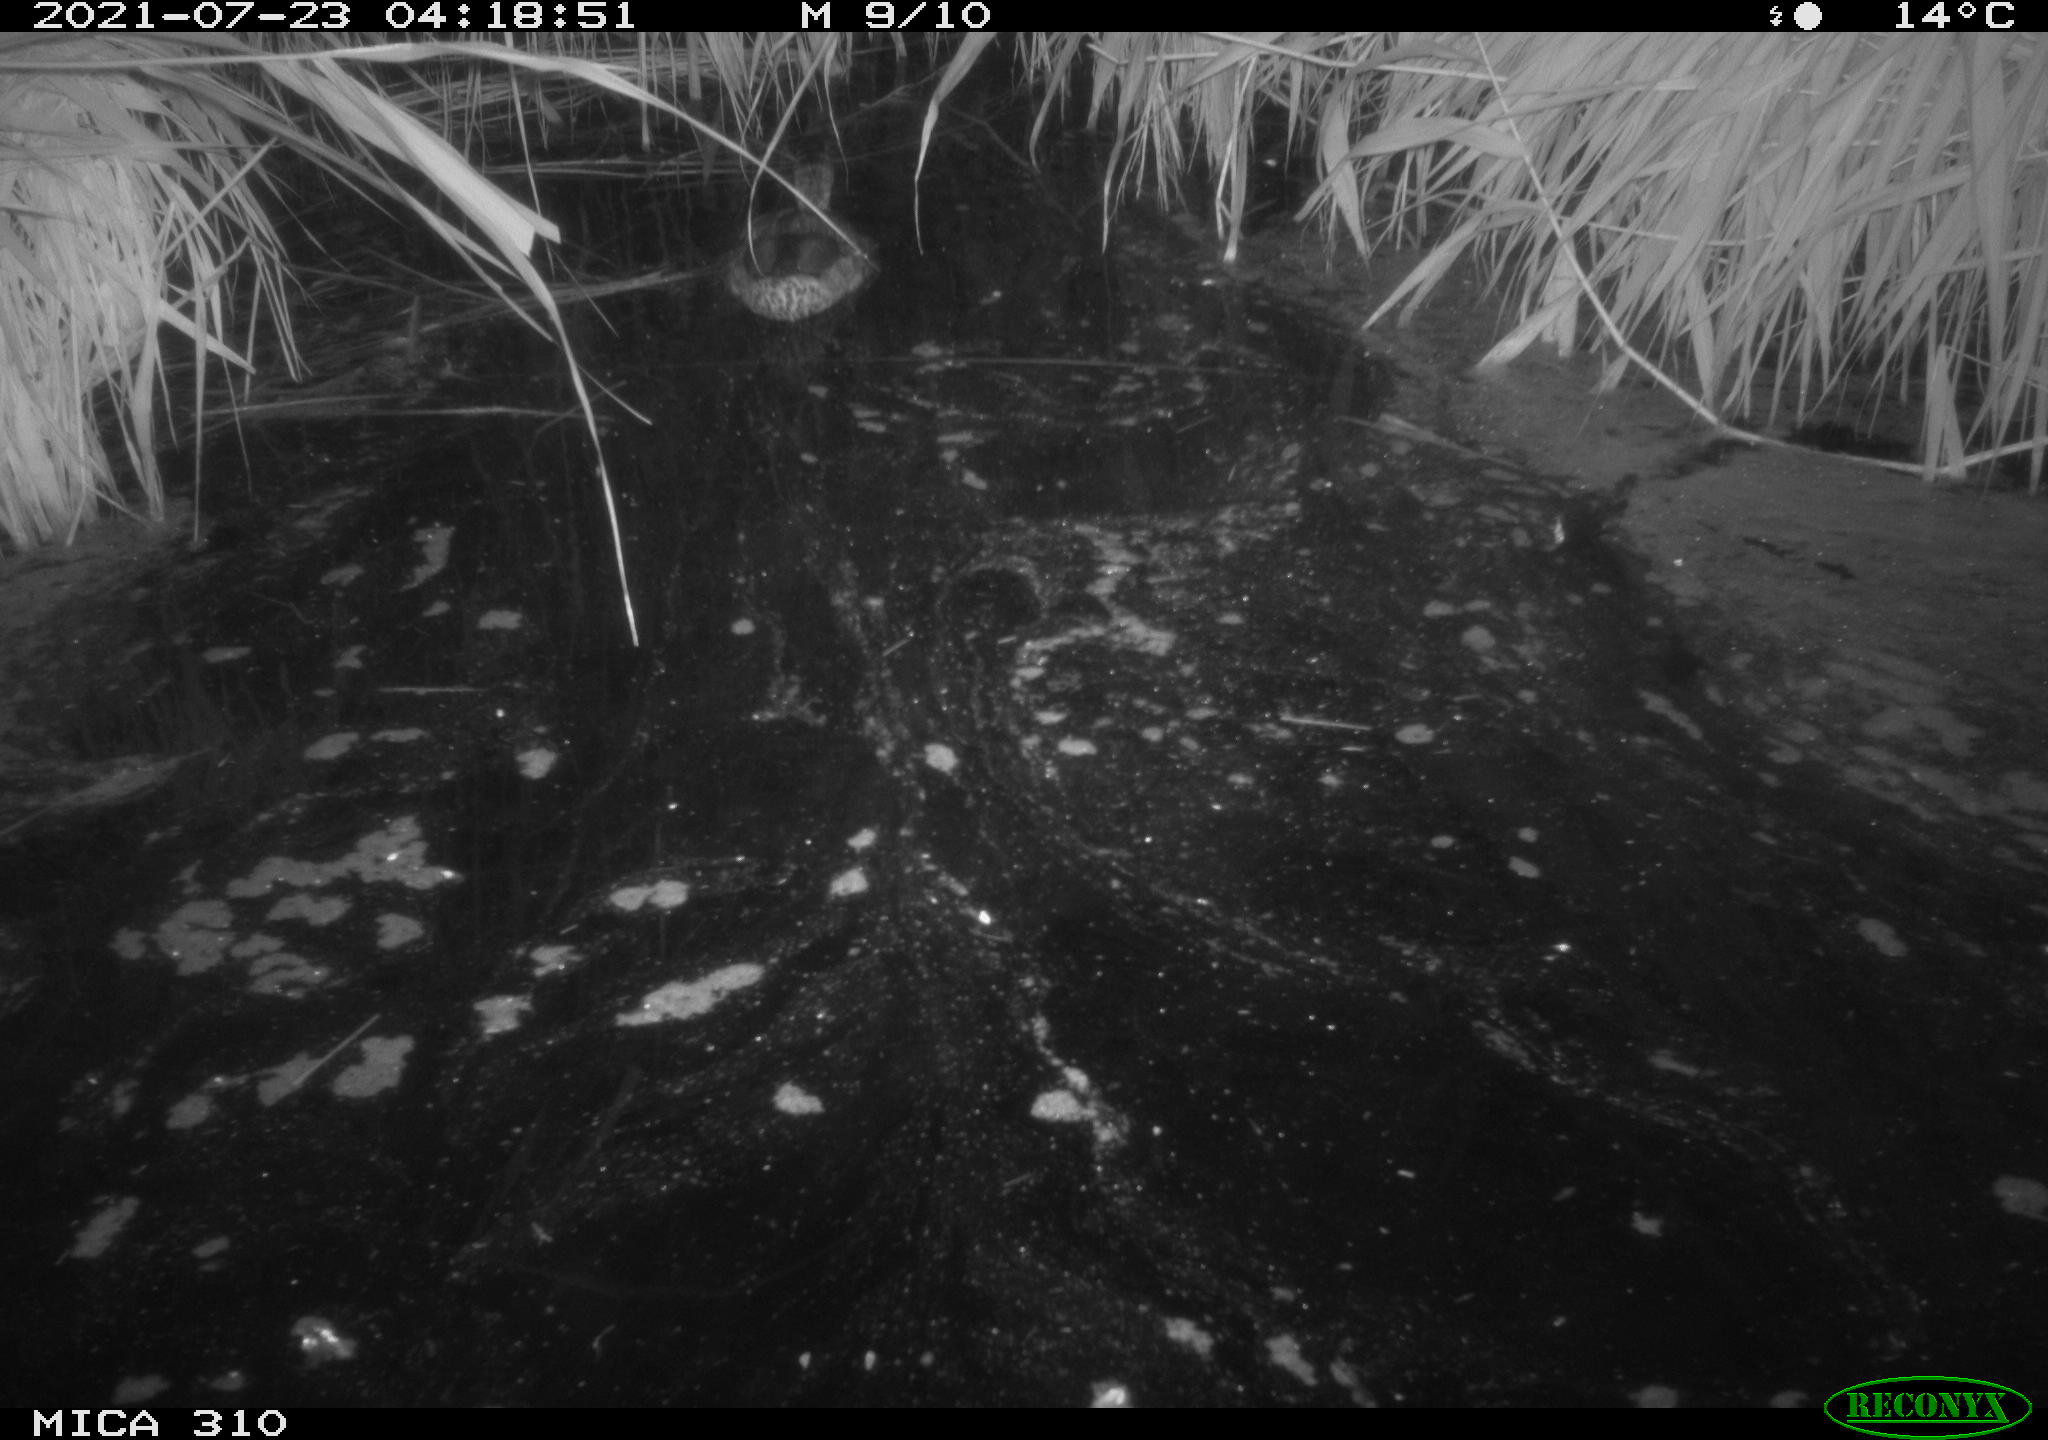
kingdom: Animalia
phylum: Chordata
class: Aves
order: Anseriformes
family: Anatidae
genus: Anas
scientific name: Anas platyrhynchos
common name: Mallard
